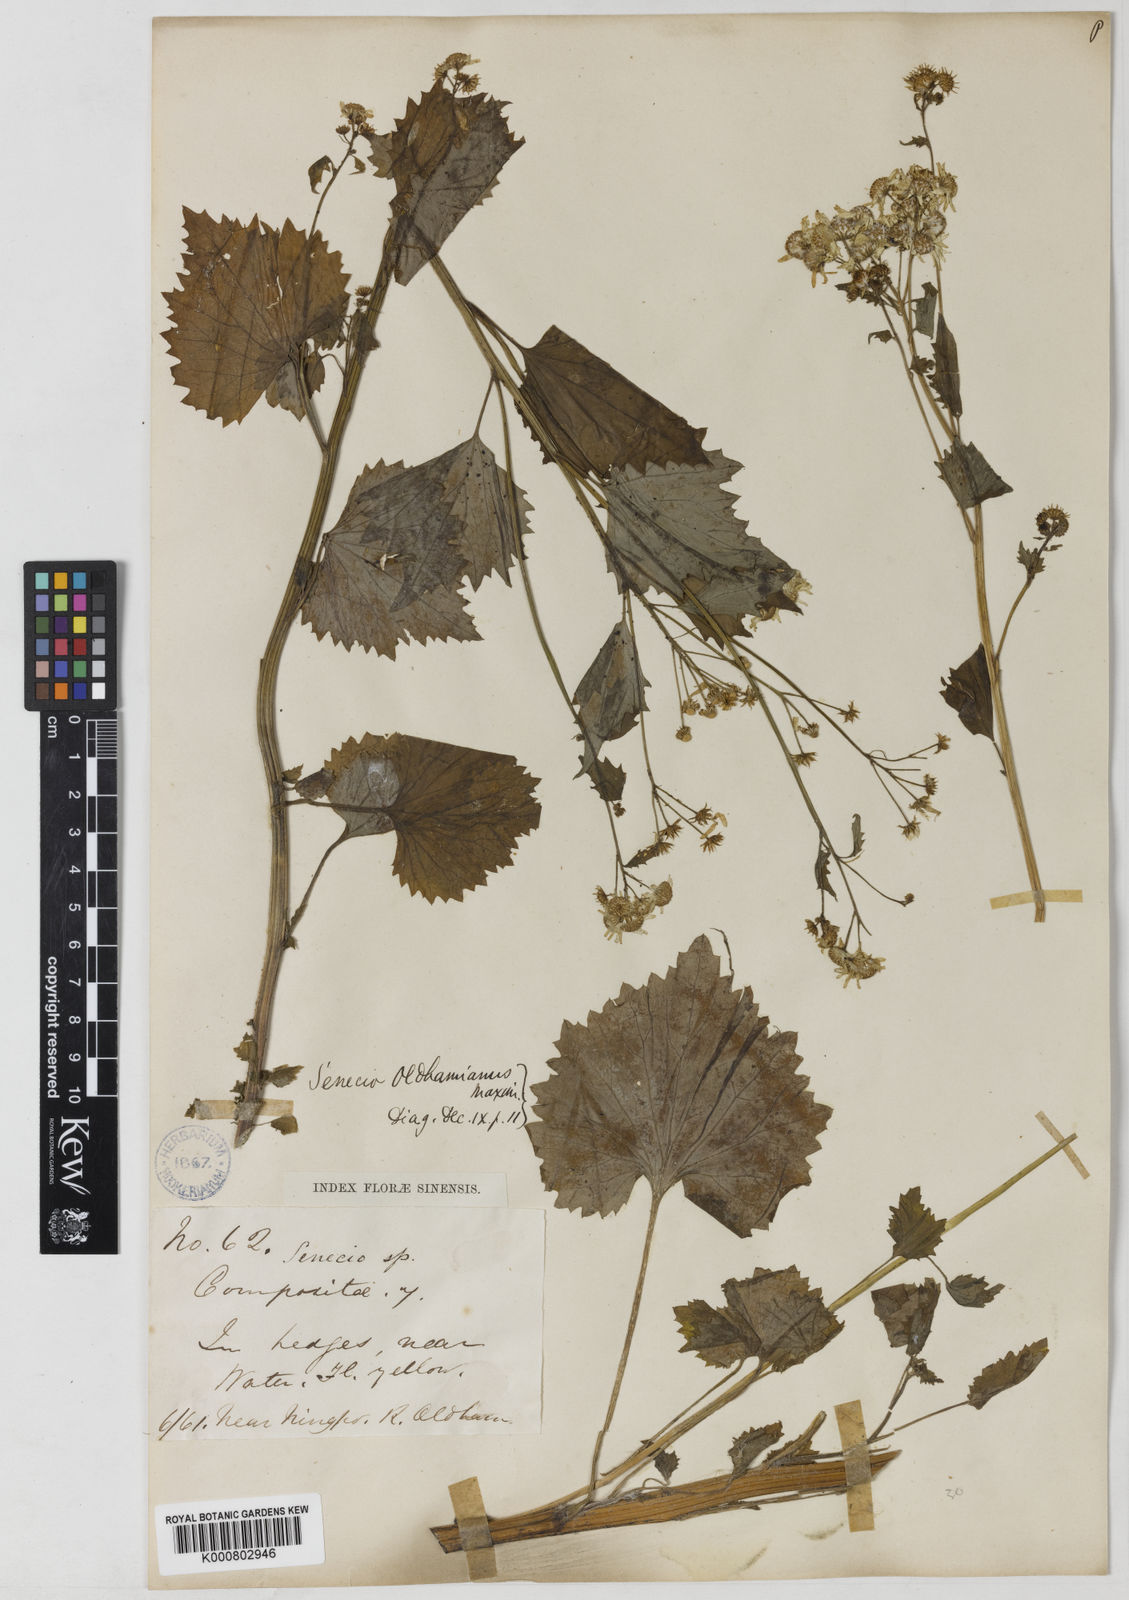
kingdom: Plantae
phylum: Tracheophyta
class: Magnoliopsida
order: Asterales
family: Asteraceae
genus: Sinosenecio
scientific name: Sinosenecio oldhamianus
